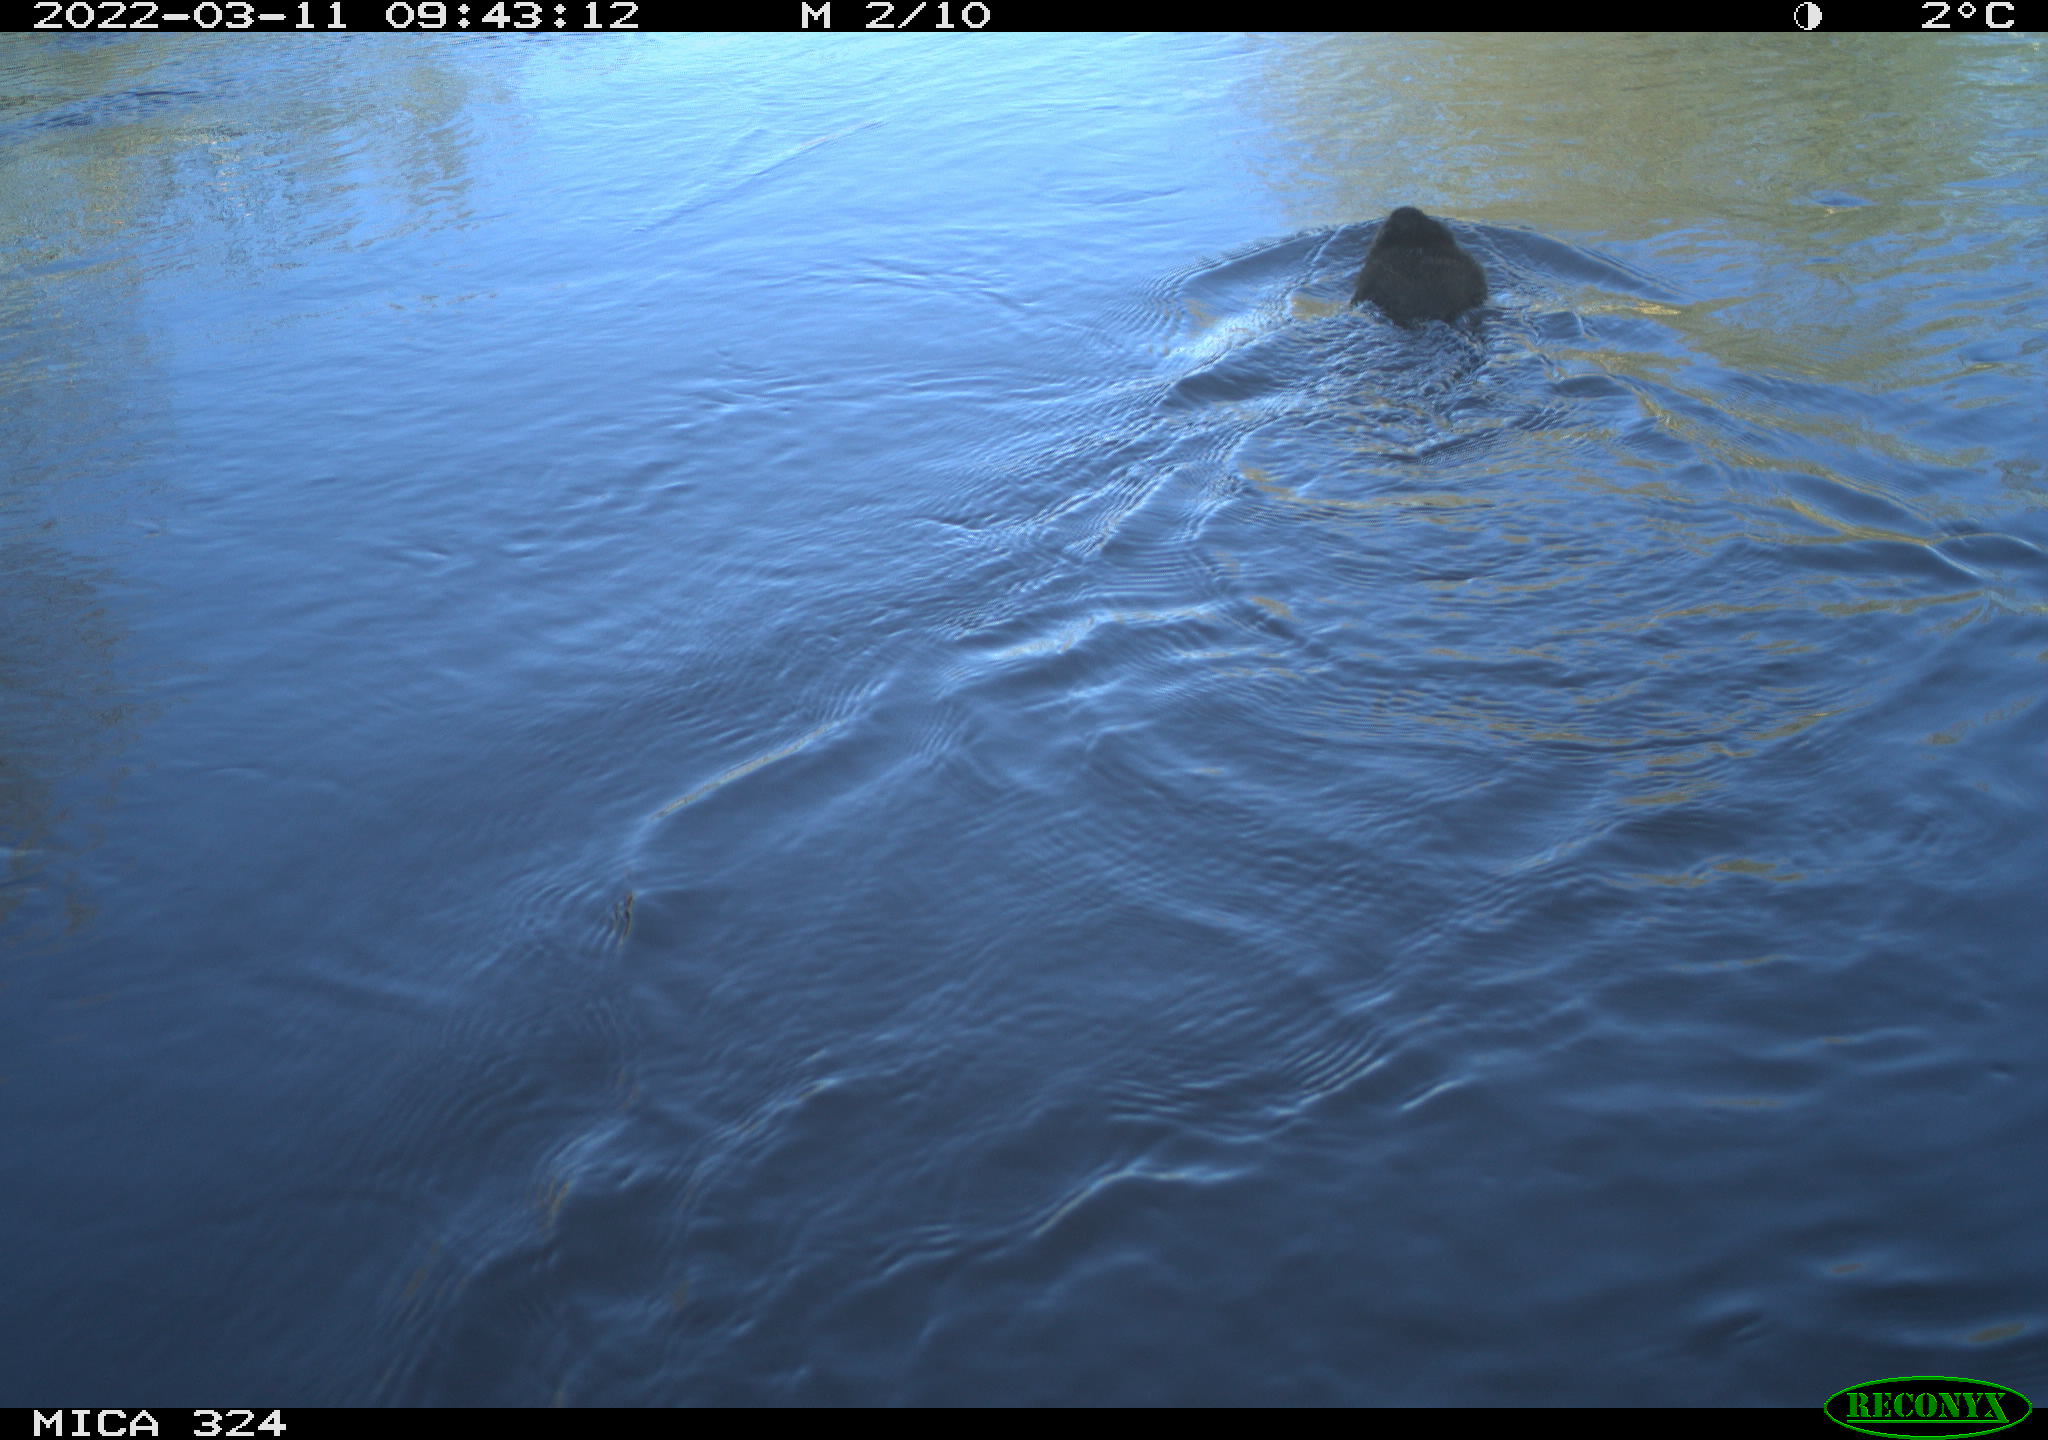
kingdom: Animalia
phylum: Chordata
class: Mammalia
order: Rodentia
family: Cricetidae
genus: Ondatra
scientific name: Ondatra zibethicus
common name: Muskrat
